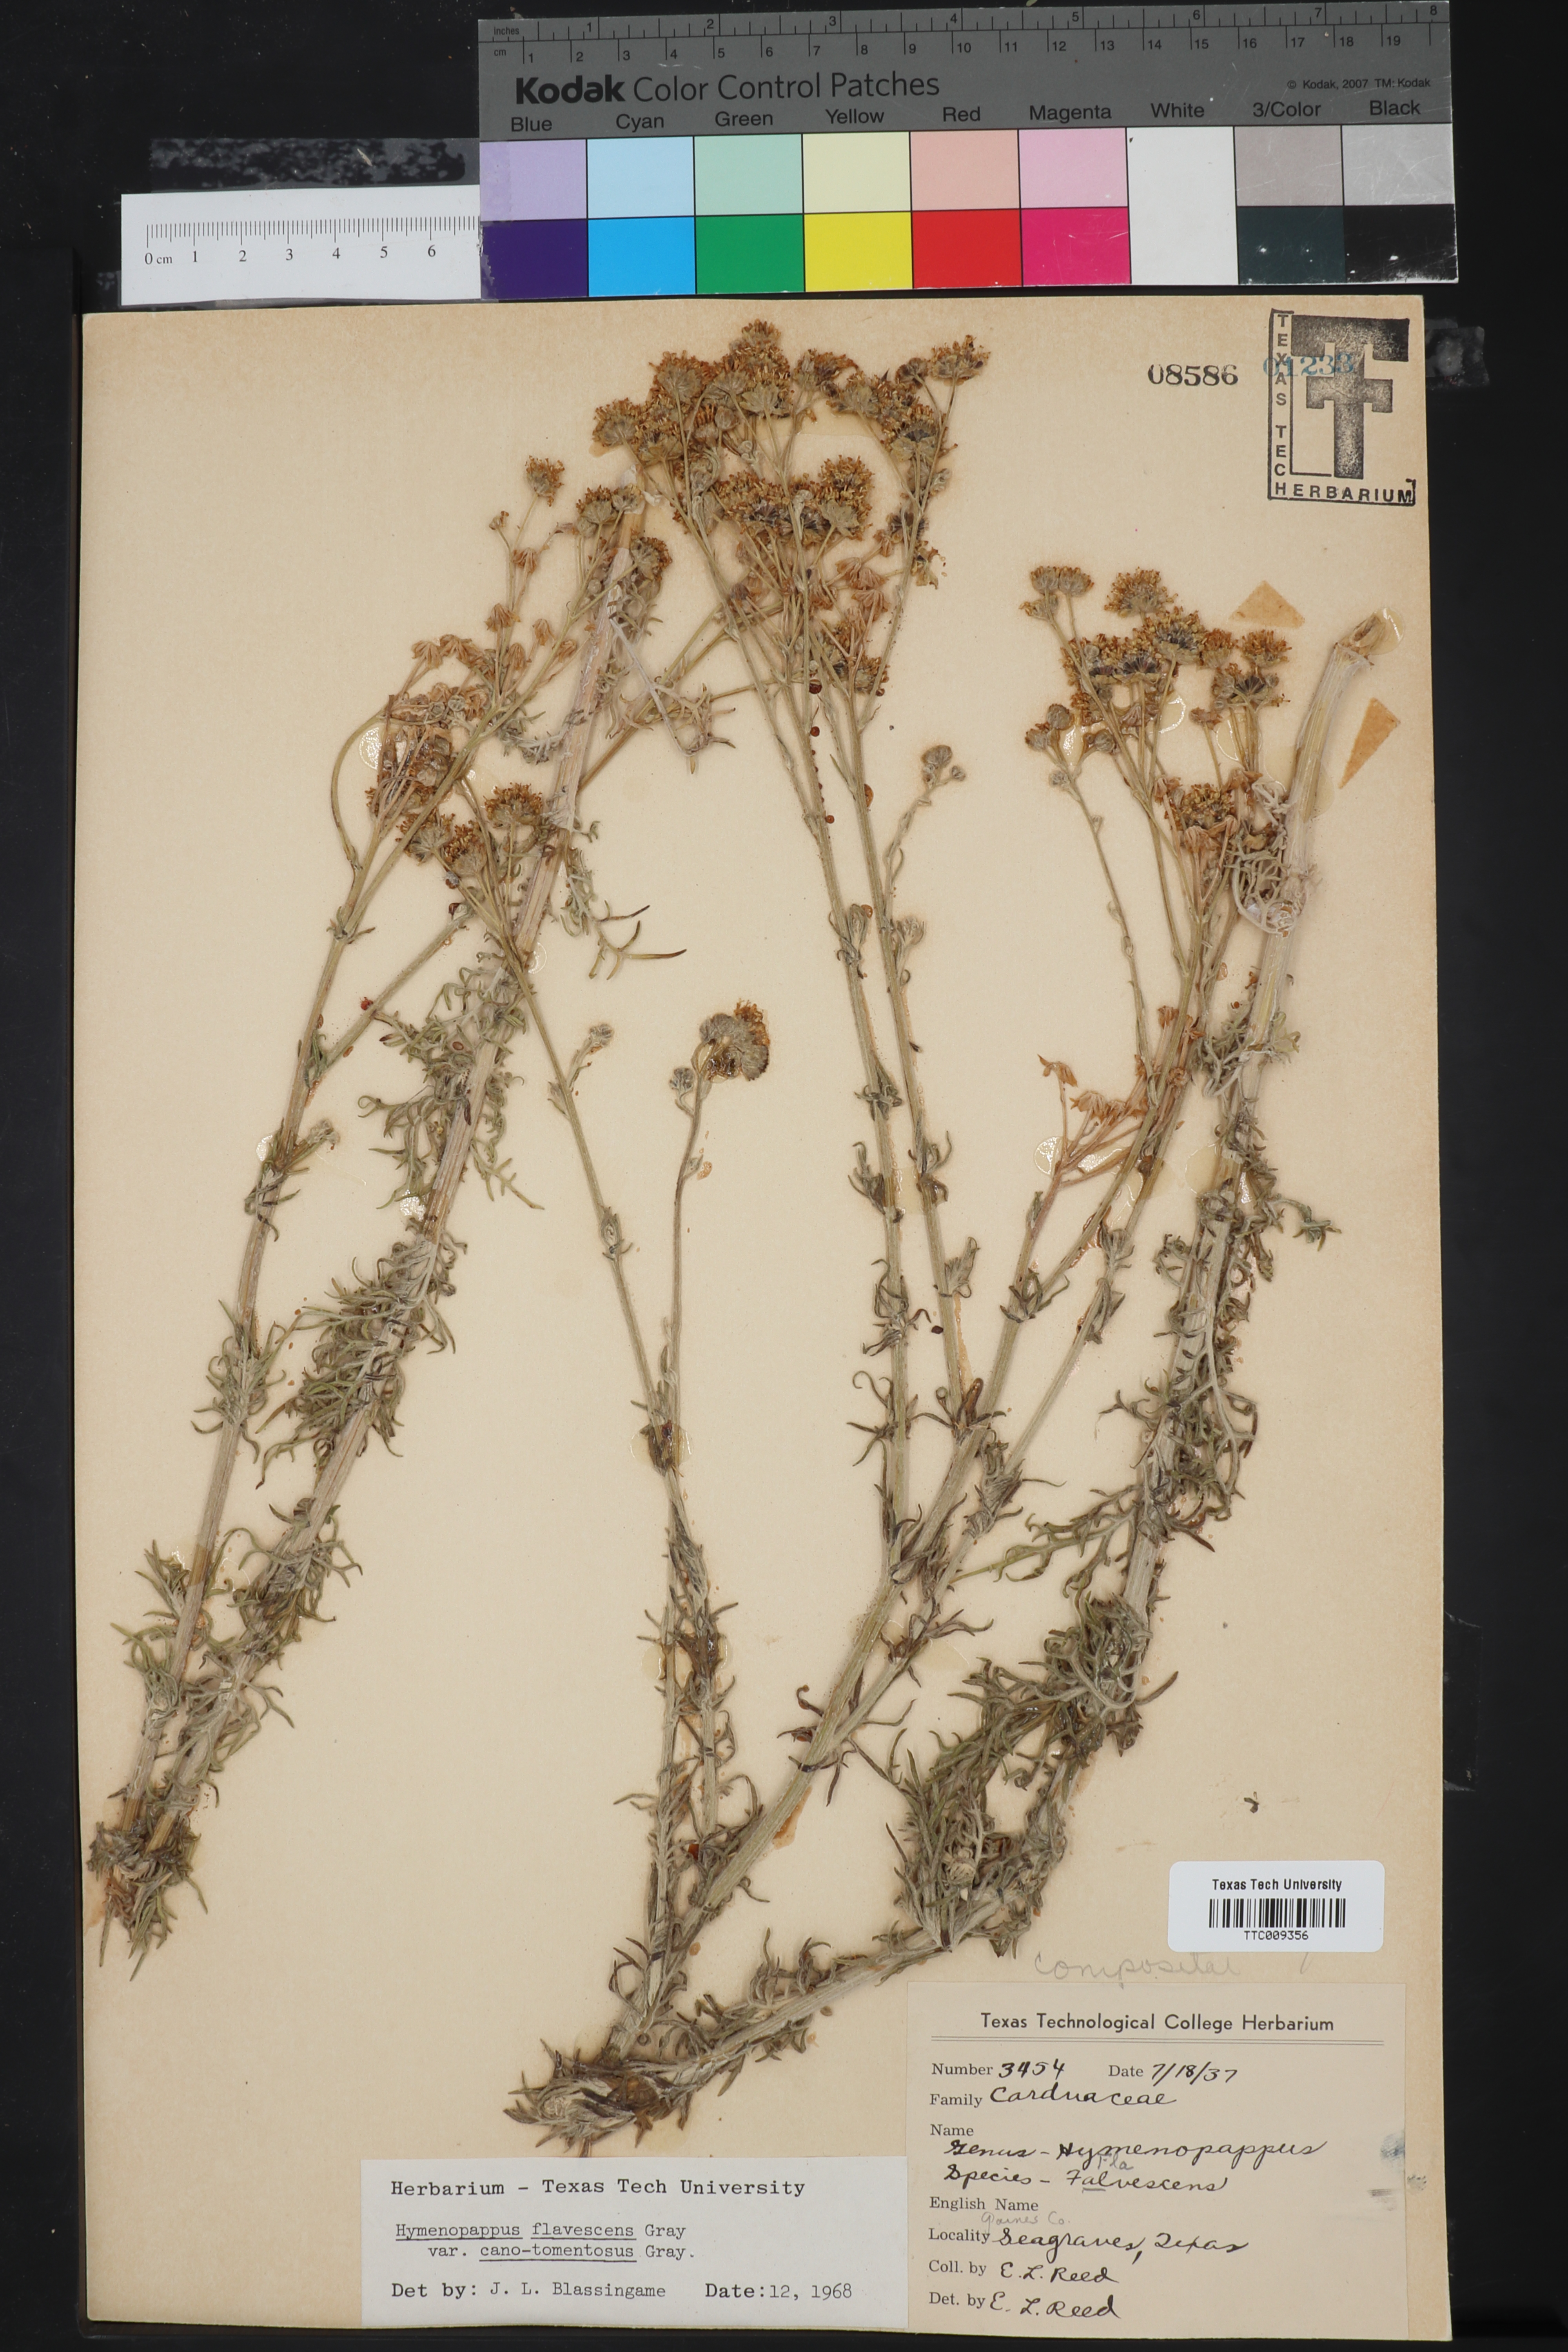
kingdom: Plantae
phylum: Tracheophyta
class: Magnoliopsida
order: Asterales
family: Asteraceae
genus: Hymenopappus
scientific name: Hymenopappus flavescens
